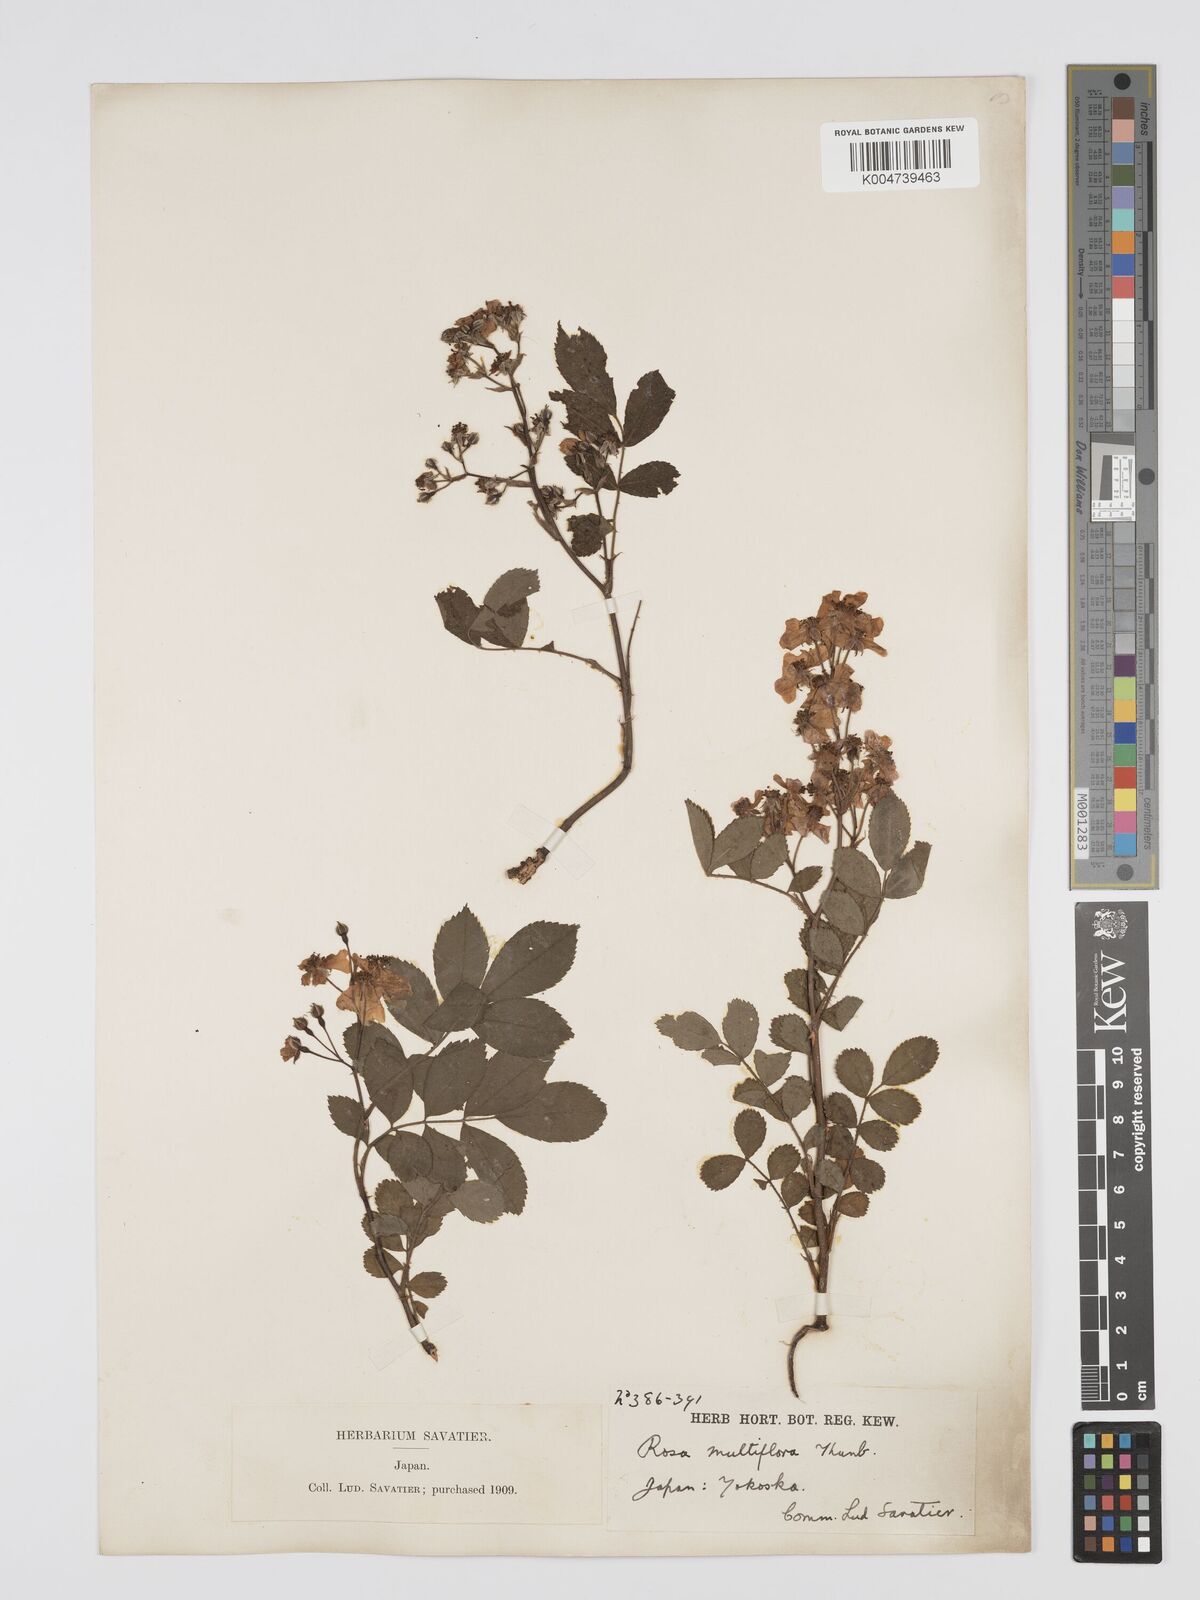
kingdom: Plantae
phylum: Tracheophyta
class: Magnoliopsida
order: Rosales
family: Rosaceae
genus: Rosa
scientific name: Rosa
